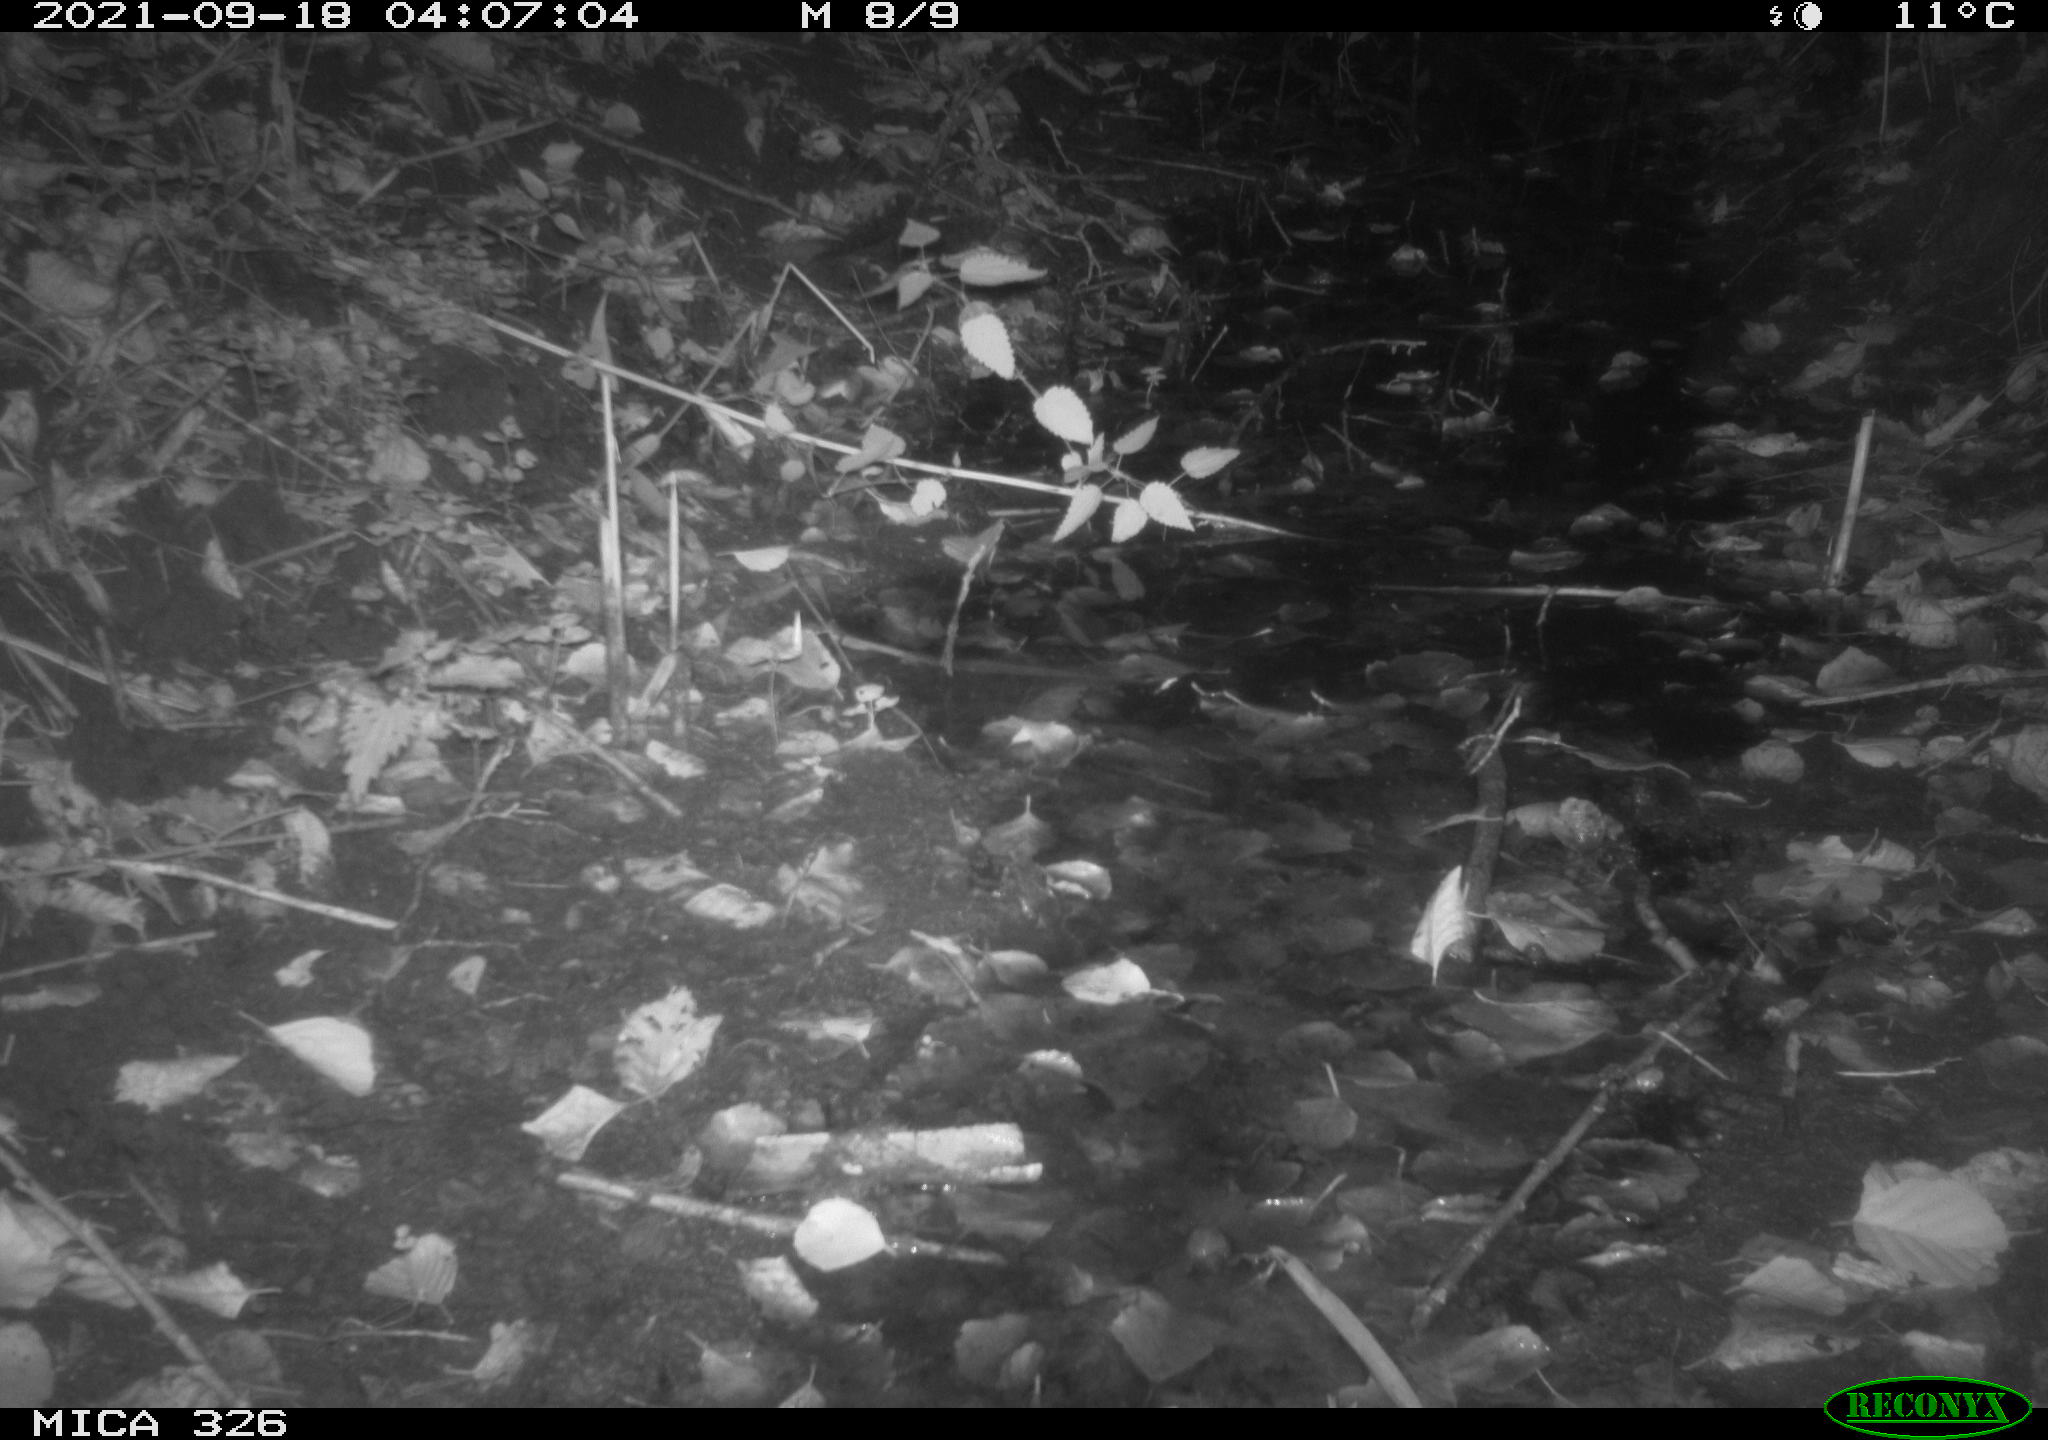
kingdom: Animalia
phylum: Chordata
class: Mammalia
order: Rodentia
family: Myocastoridae
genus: Myocastor
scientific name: Myocastor coypus
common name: Coypu
